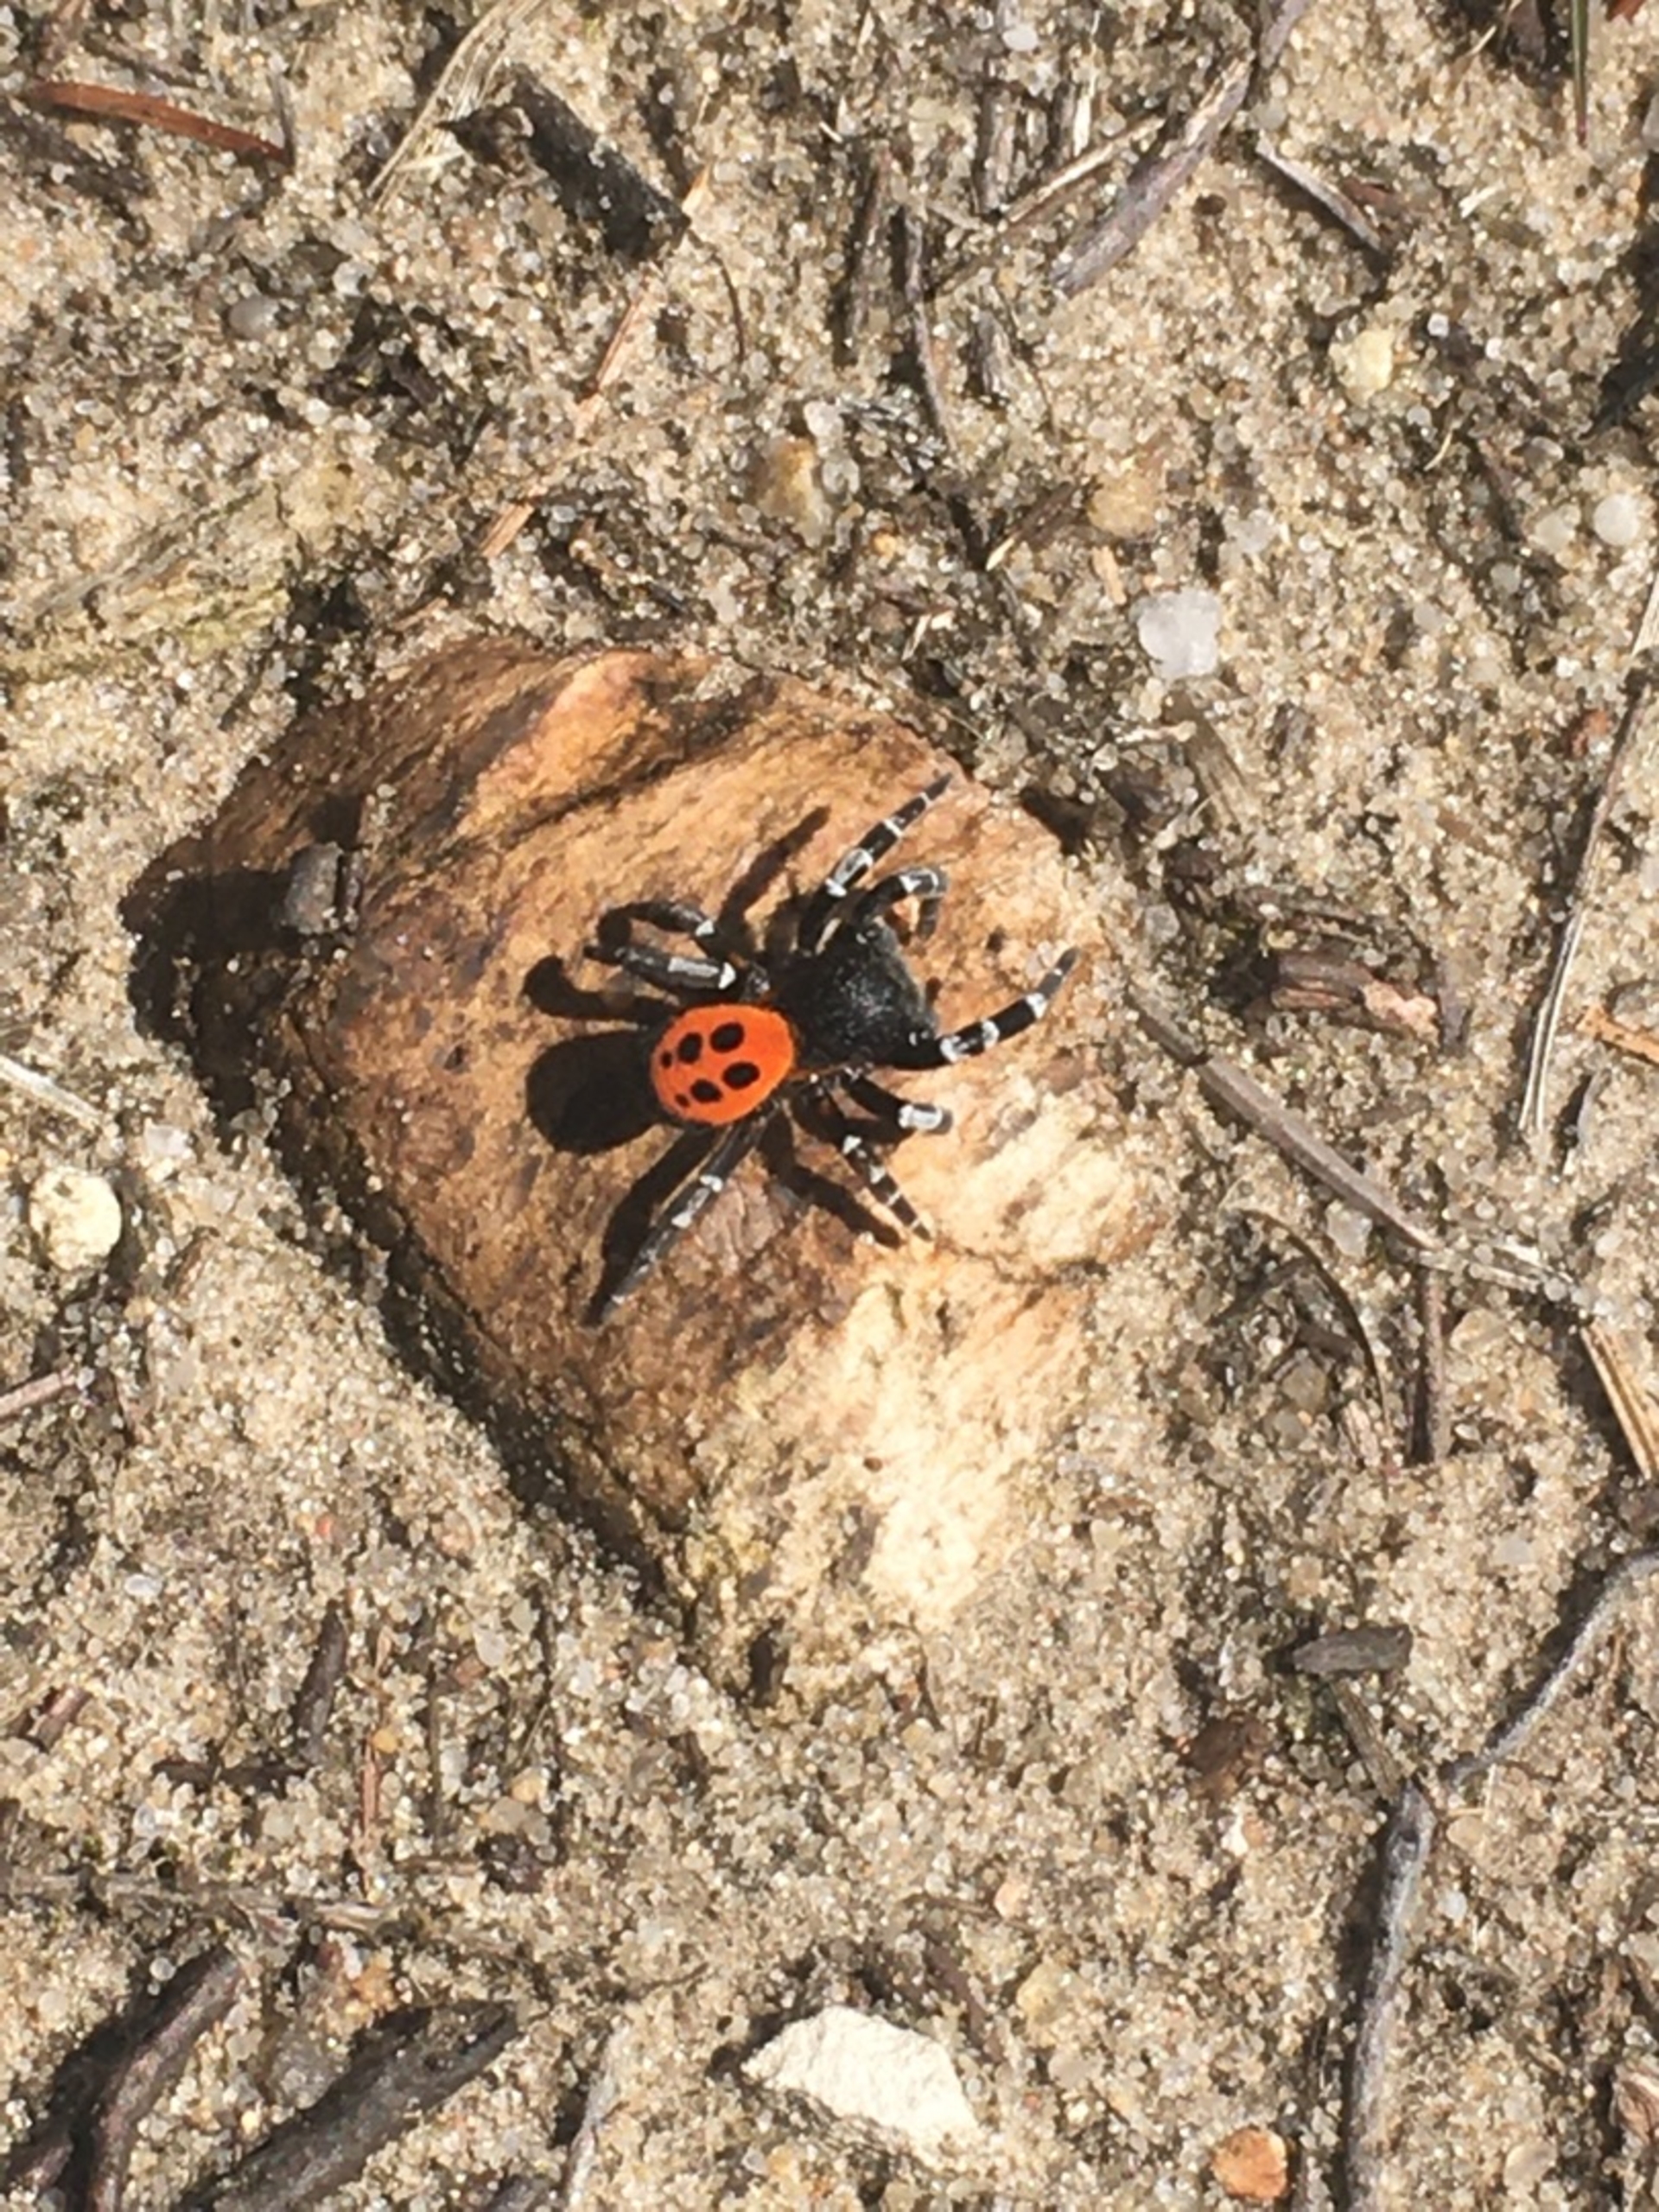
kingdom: Animalia
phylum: Arthropoda
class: Arachnida
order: Araneae
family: Eresidae
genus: Eresus
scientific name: Eresus sandaliatus
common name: Mariehøneedderkop
